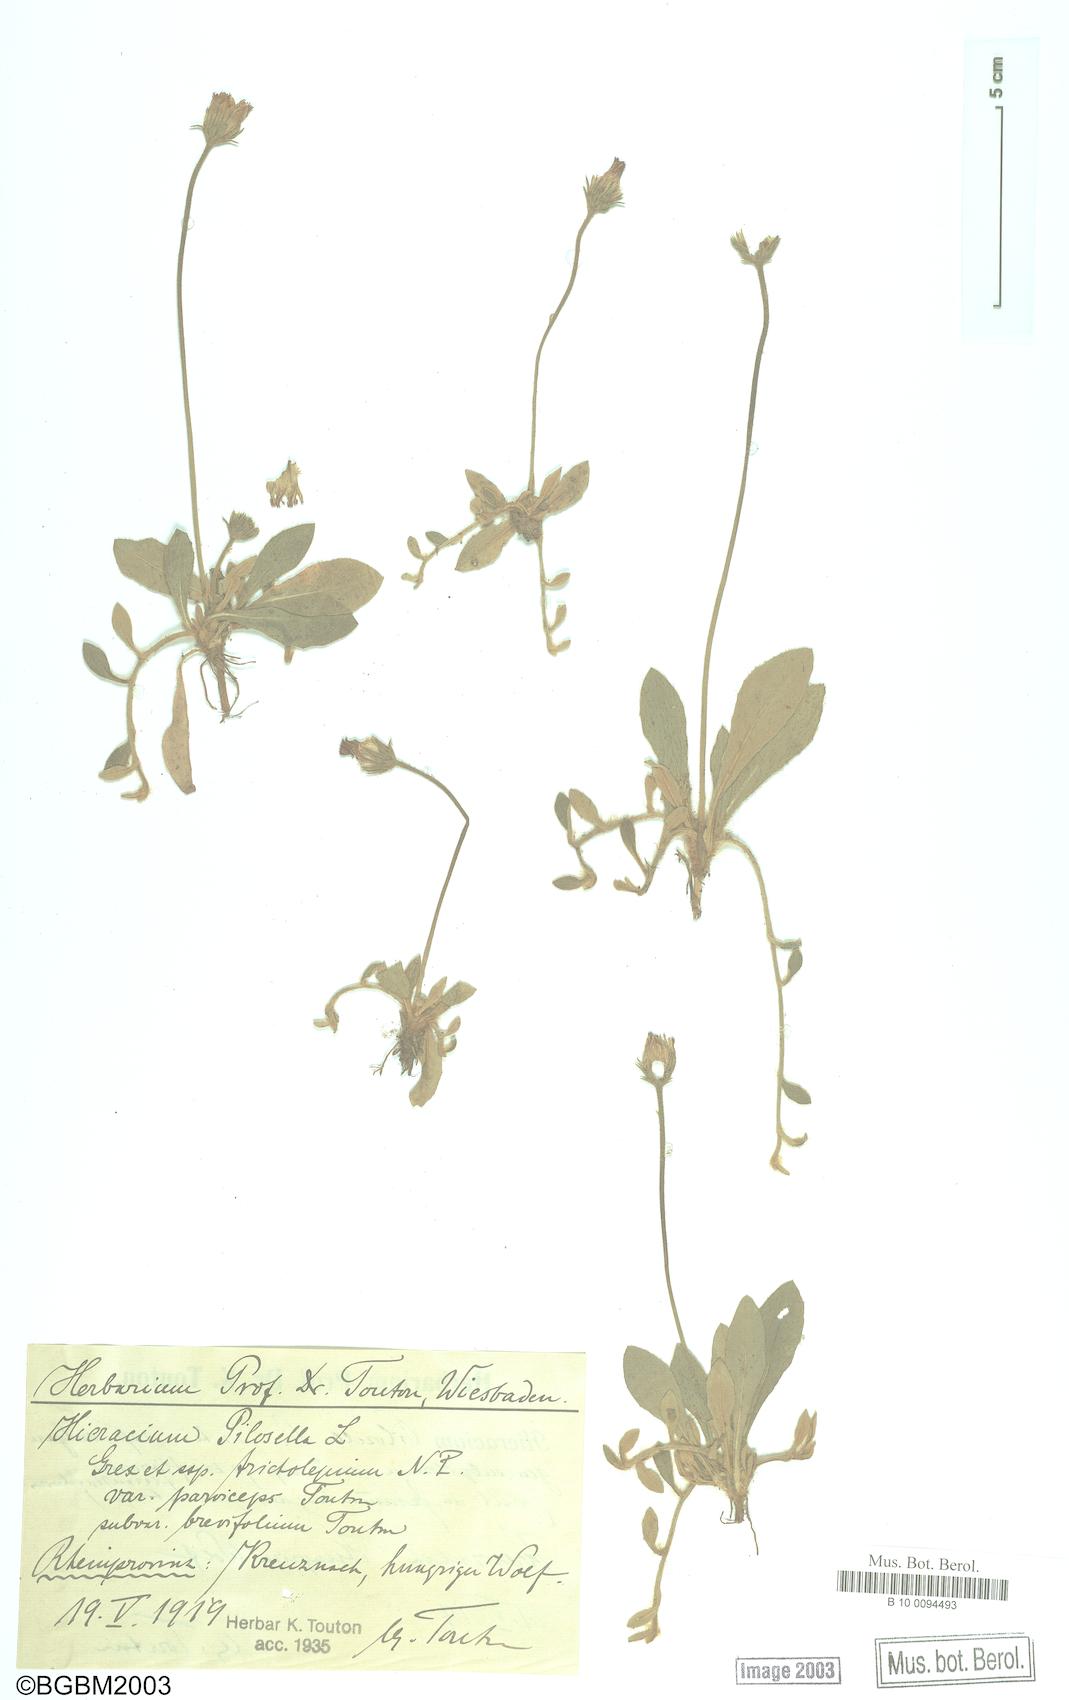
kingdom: Plantae
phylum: Tracheophyta
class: Magnoliopsida
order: Asterales
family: Asteraceae
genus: Pilosella
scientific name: Pilosella officinarum
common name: Mouse-ear hawkweed
